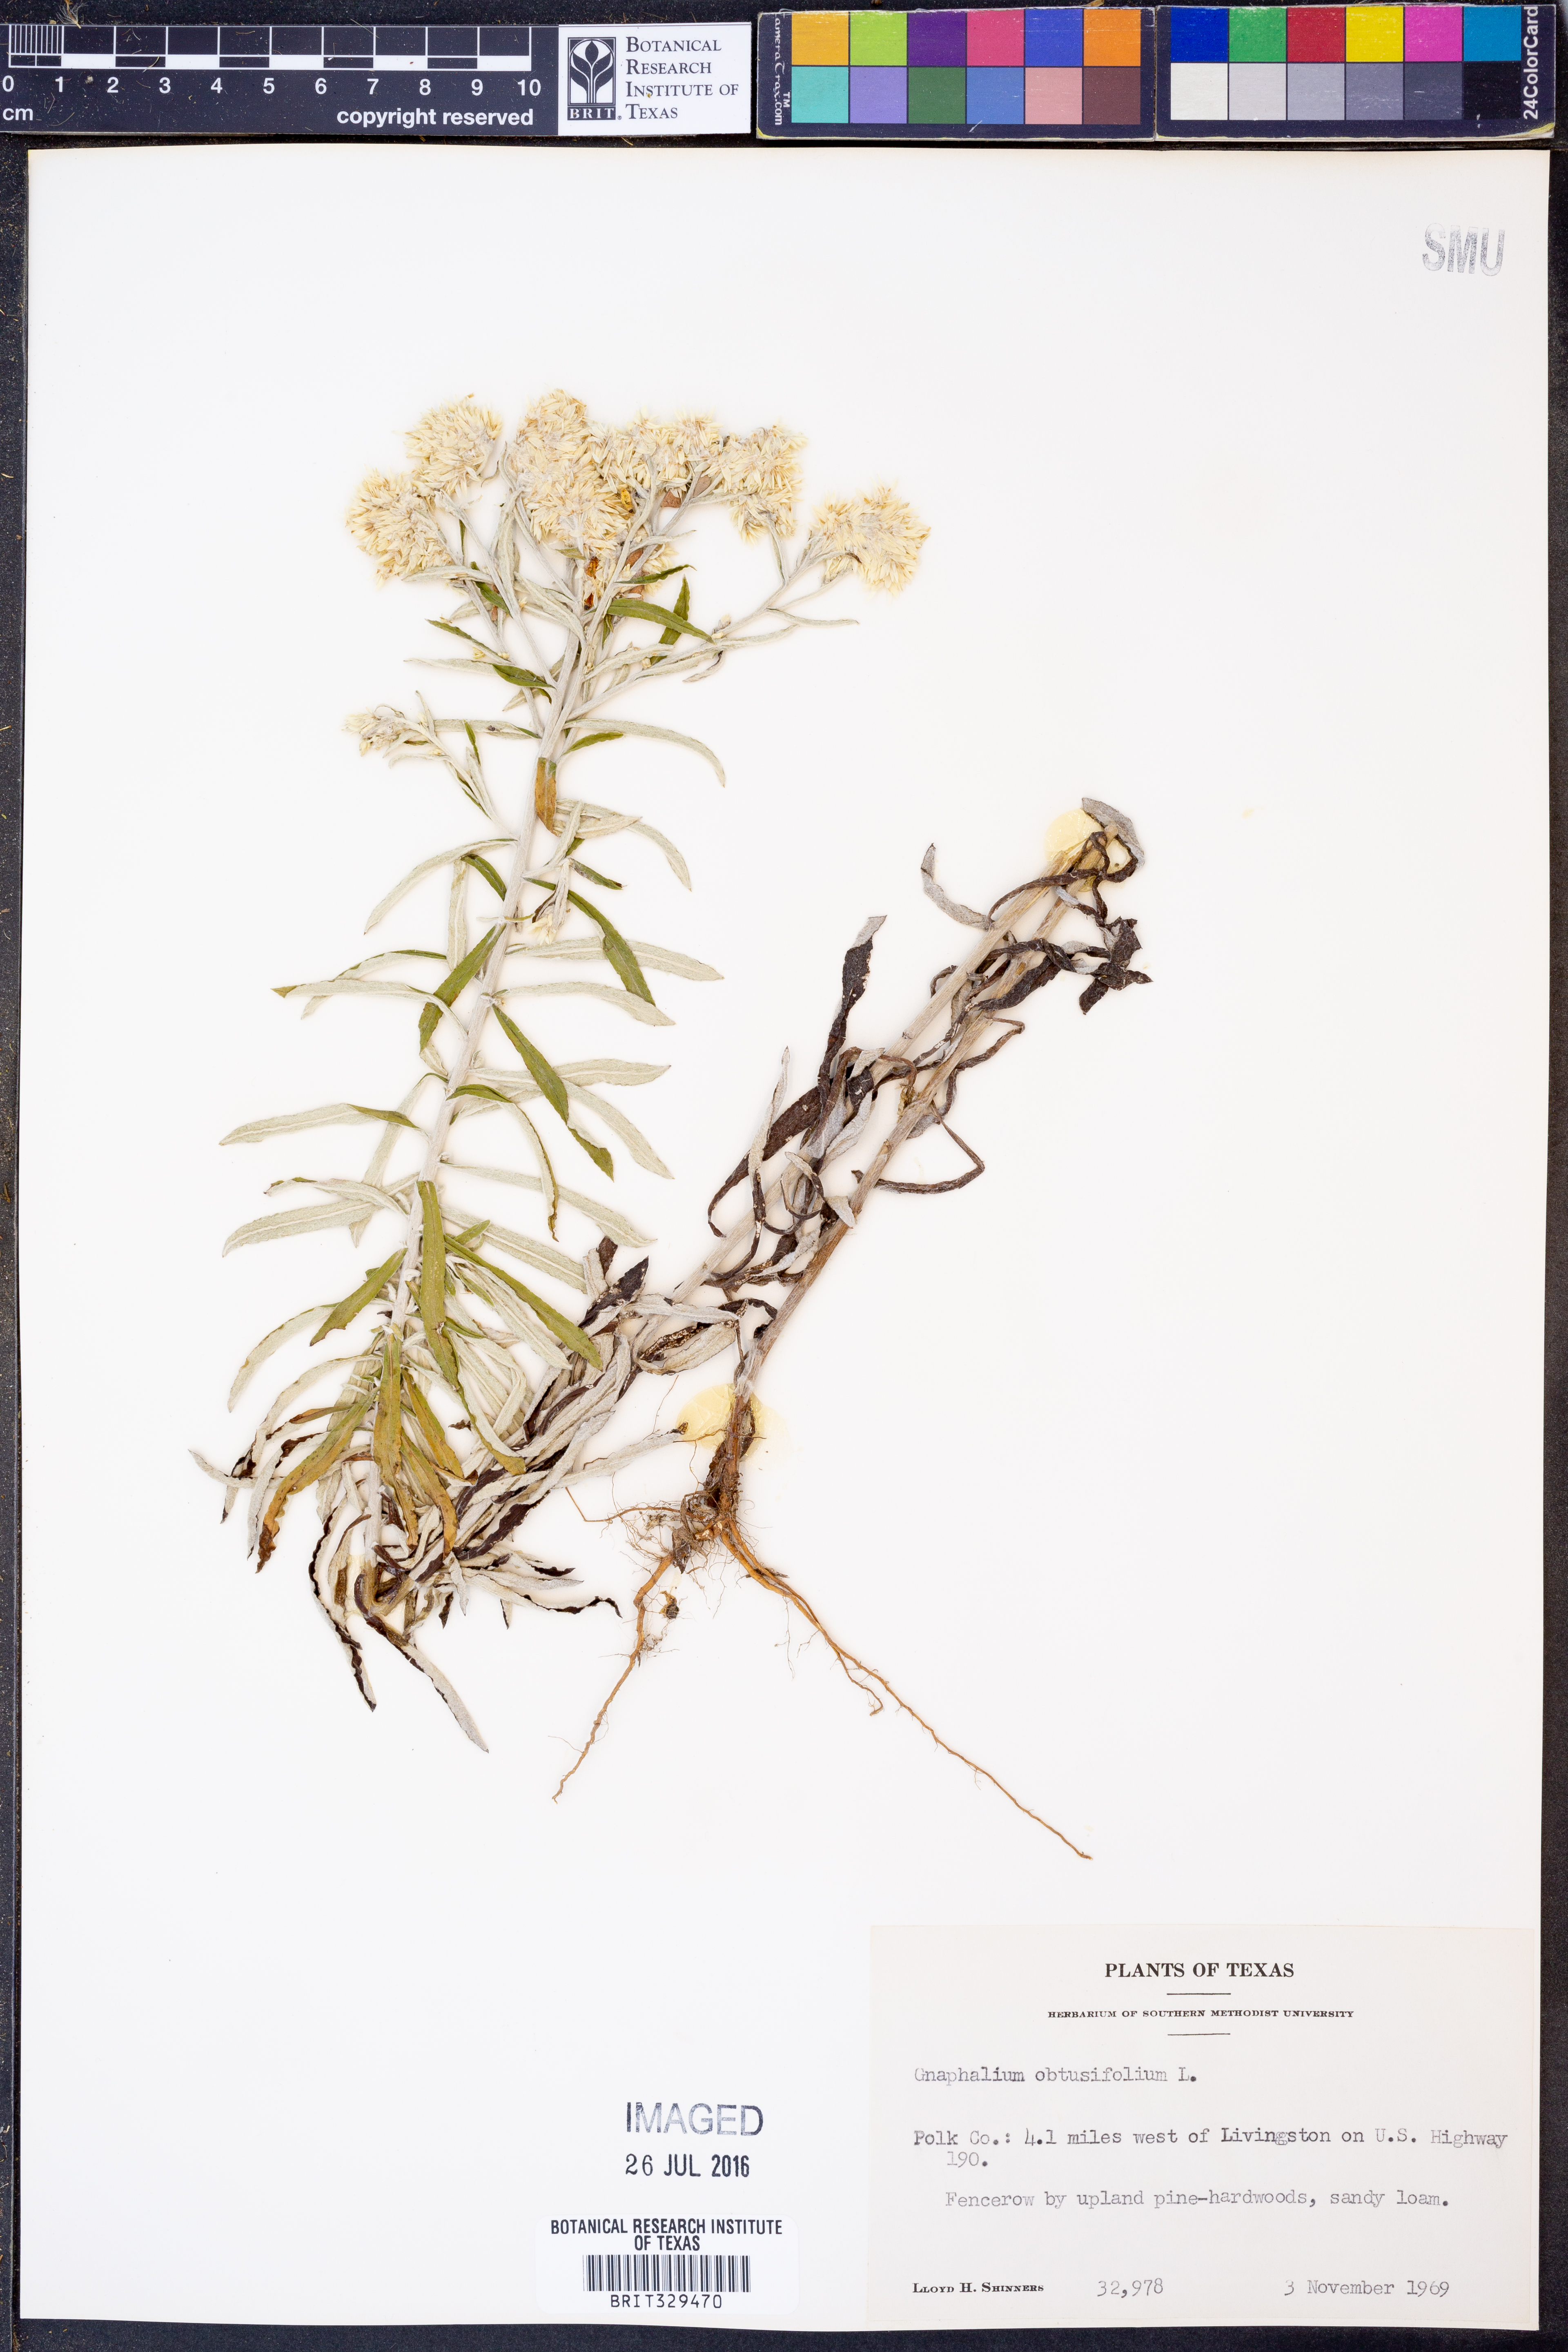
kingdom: Plantae
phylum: Tracheophyta
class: Magnoliopsida
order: Asterales
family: Asteraceae
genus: Pseudognaphalium
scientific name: Pseudognaphalium obtusifolium
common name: Eastern rabbit-tobacco
